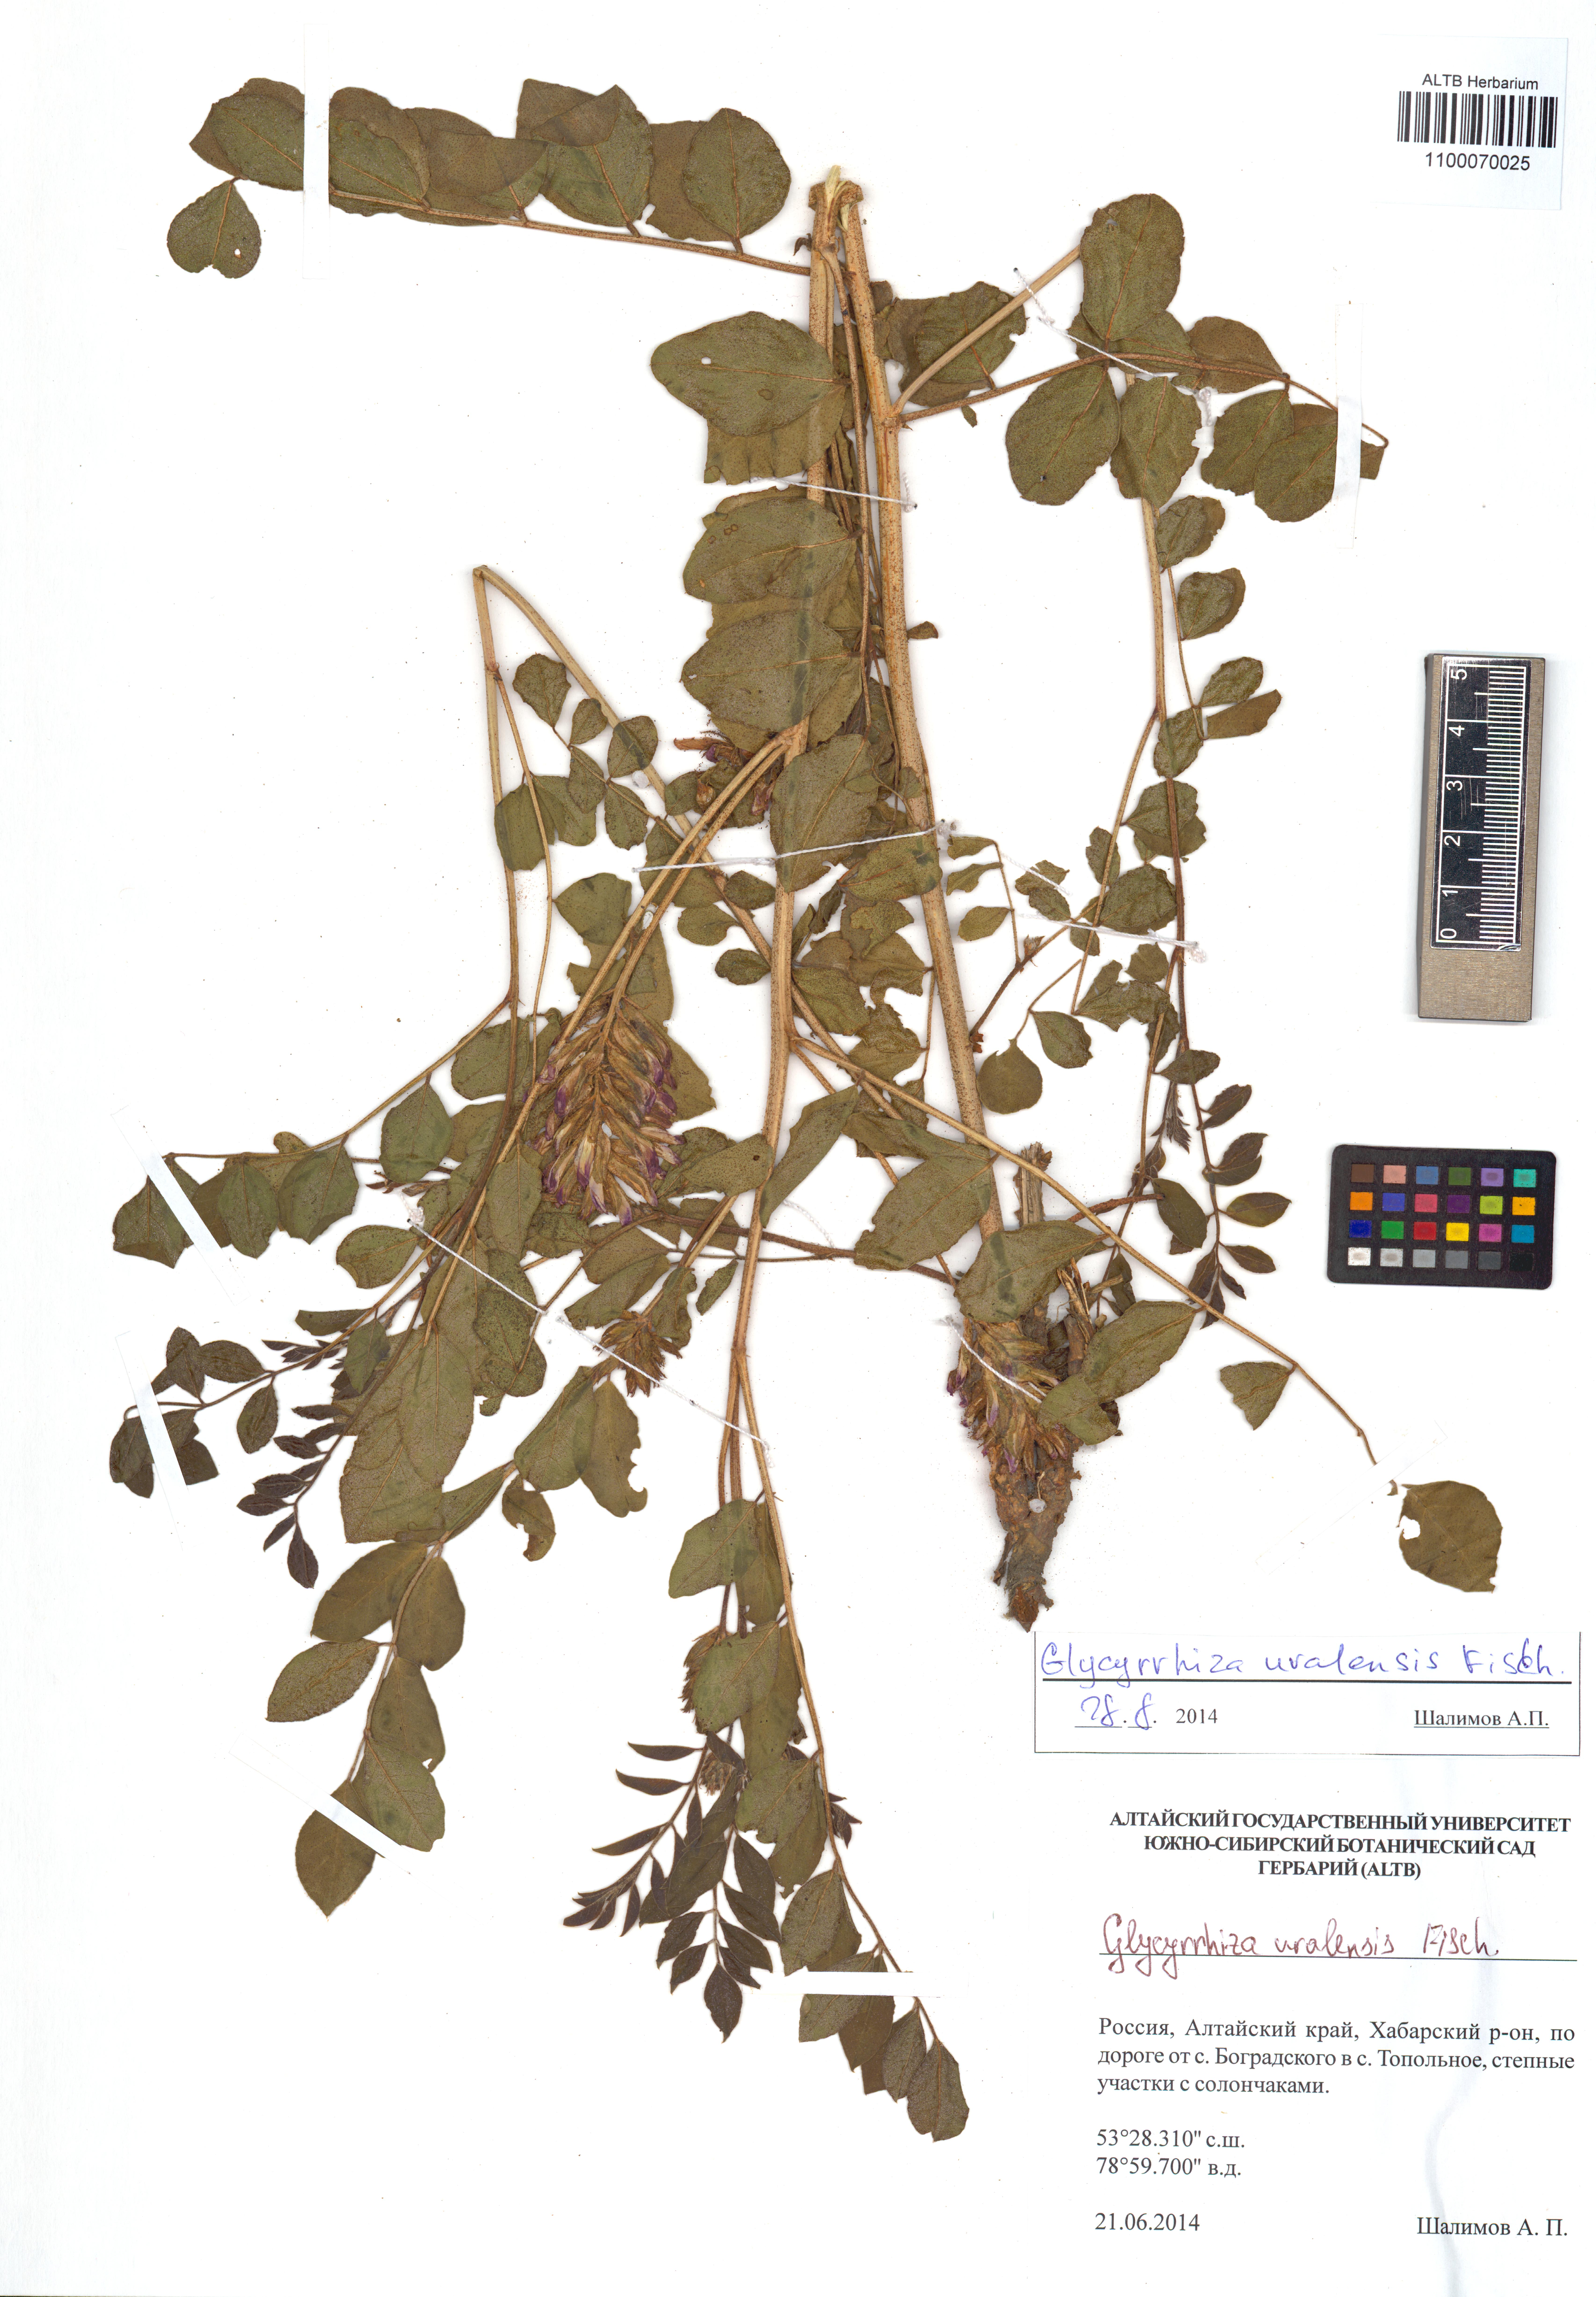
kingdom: Plantae
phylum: Tracheophyta
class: Magnoliopsida
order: Fabales
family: Fabaceae
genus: Glycyrrhiza
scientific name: Glycyrrhiza uralensis
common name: Chinese licorice
